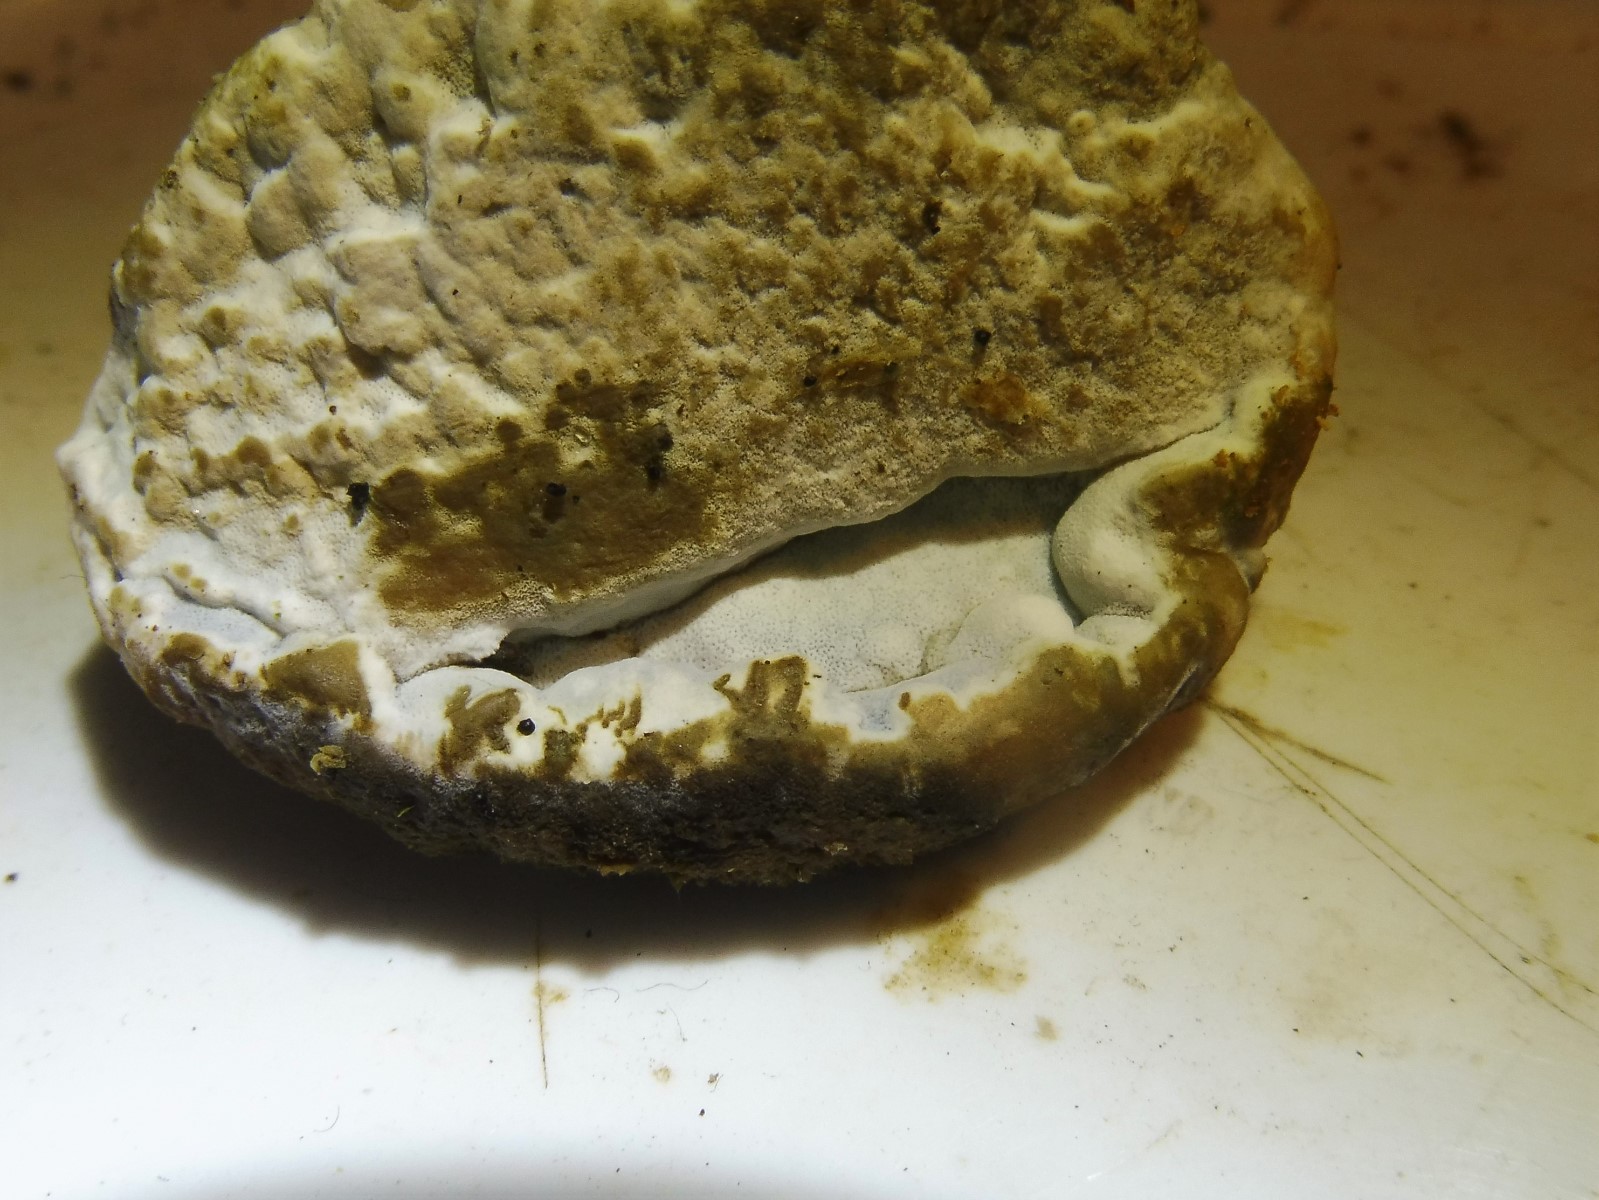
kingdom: Fungi
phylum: Basidiomycota
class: Agaricomycetes
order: Polyporales
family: Incrustoporiaceae
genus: Skeletocutis
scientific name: Skeletocutis nemoralis
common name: stor krystalporesvamp
